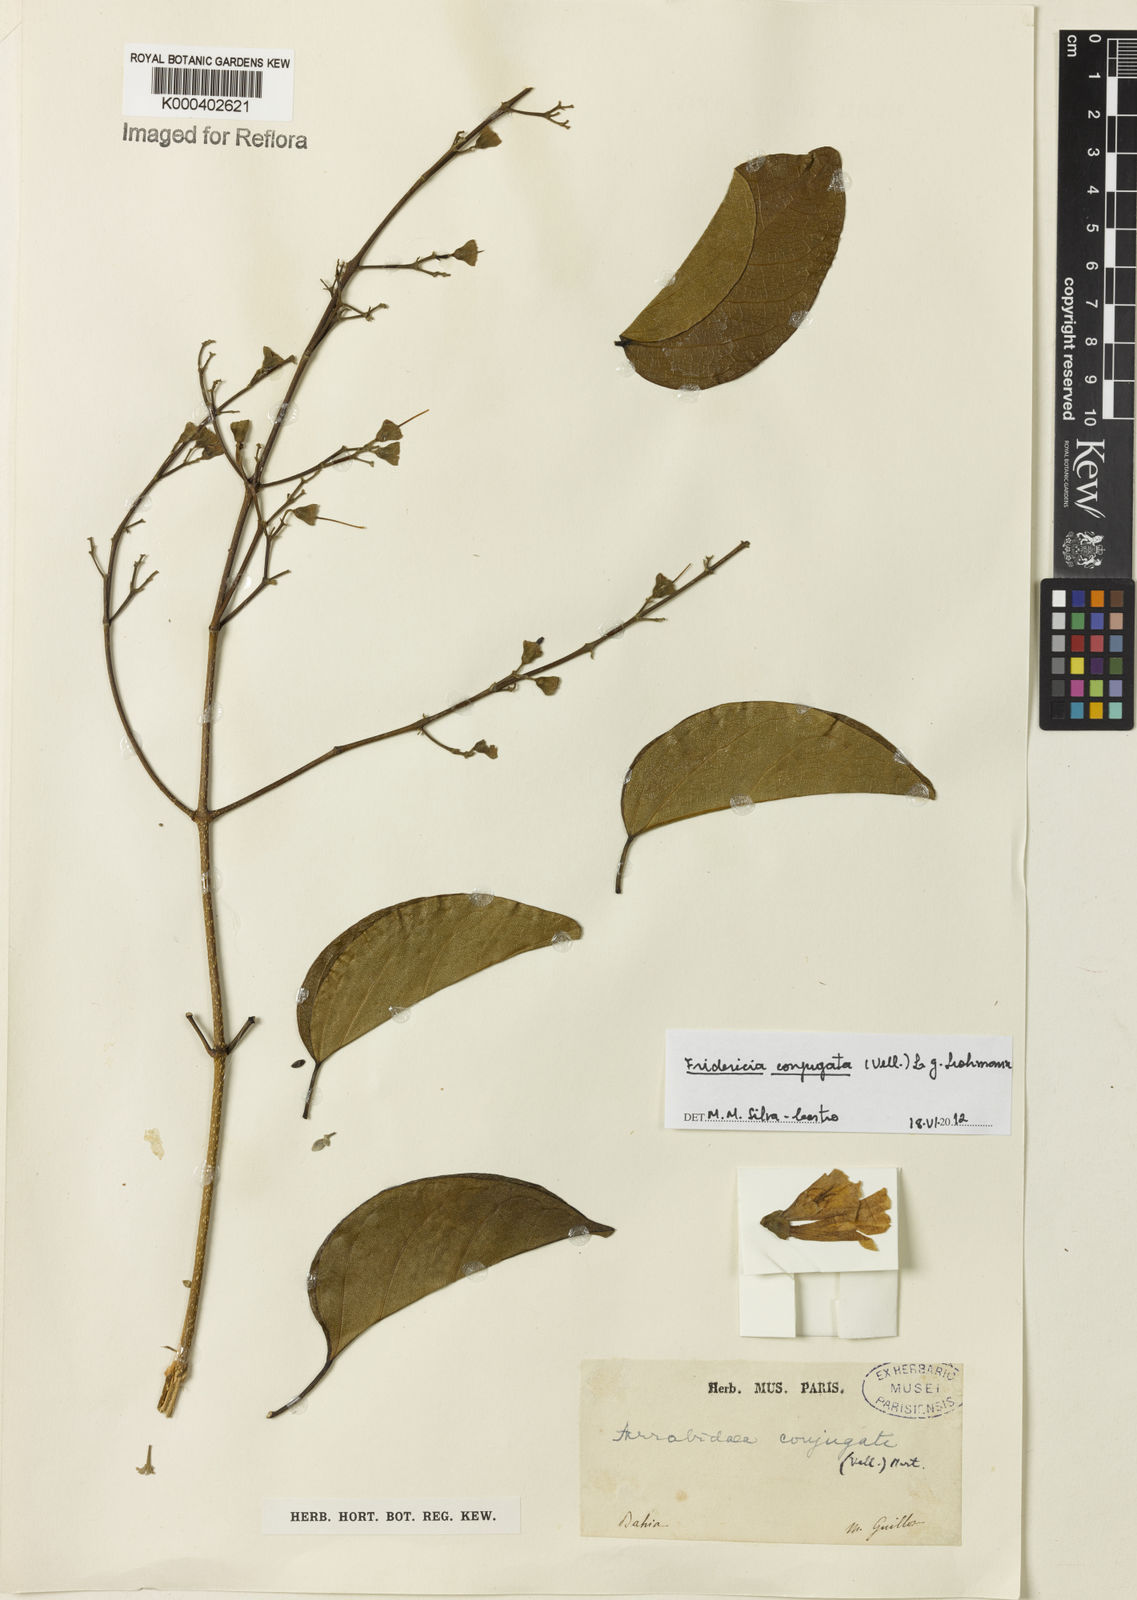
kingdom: Plantae
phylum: Tracheophyta
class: Magnoliopsida
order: Lamiales
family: Bignoniaceae
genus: Fridericia
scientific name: Fridericia conjugata
